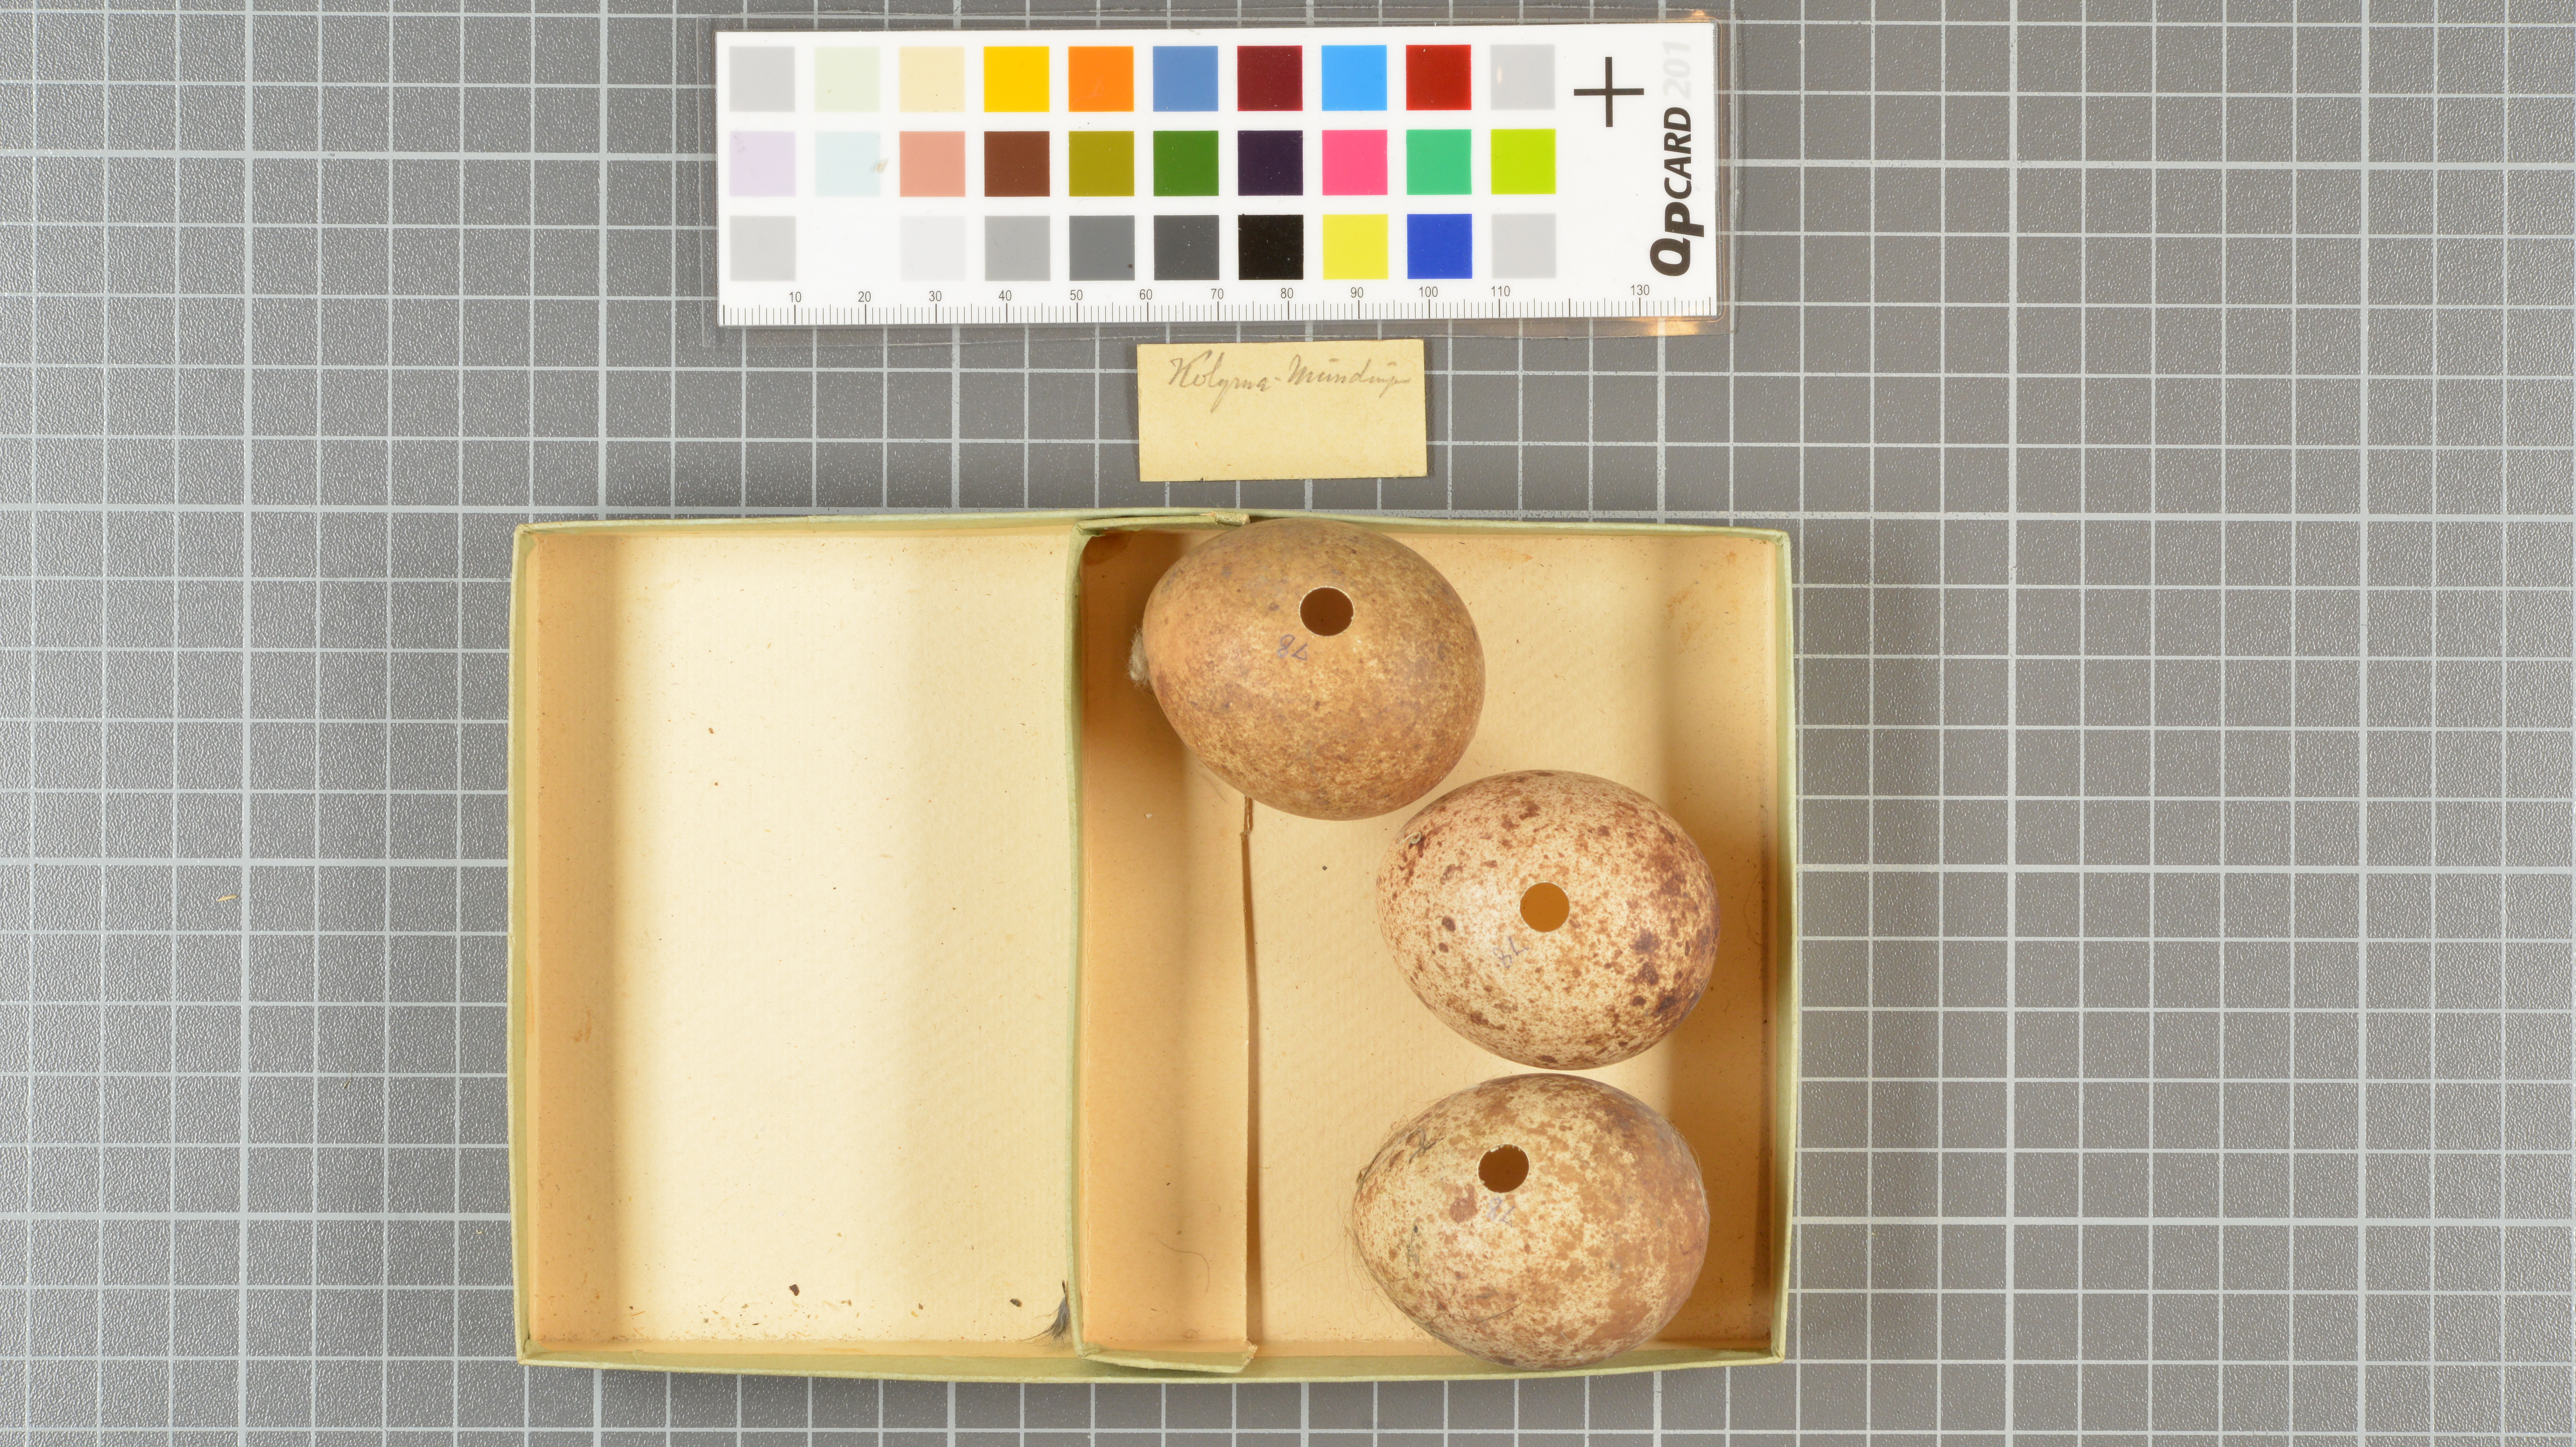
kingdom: Animalia
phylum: Chordata
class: Aves
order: Falconiformes
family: Falconidae
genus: Falco
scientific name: Falco peregrinus
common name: Peregrine falcon
